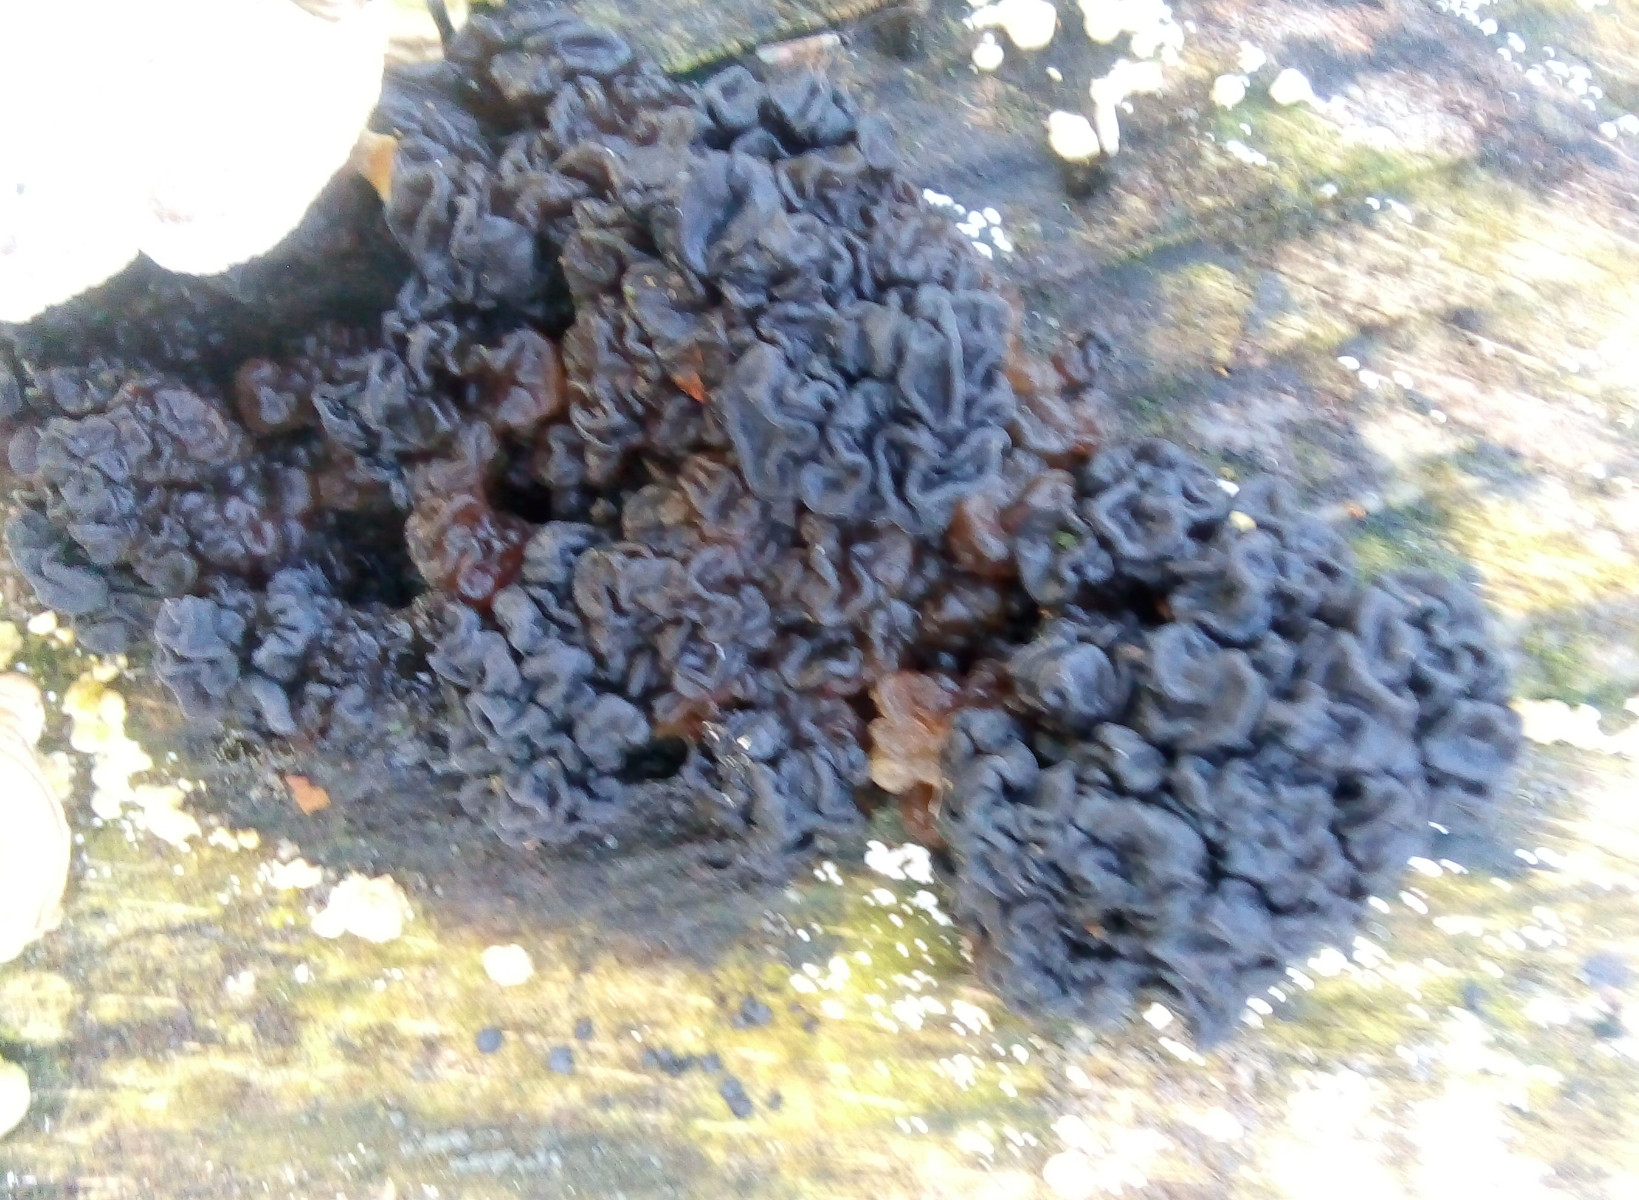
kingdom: Fungi
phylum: Basidiomycota
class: Agaricomycetes
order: Auriculariales
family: Auriculariaceae
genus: Exidia
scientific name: Exidia nigricans
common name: almindelig bævretop
